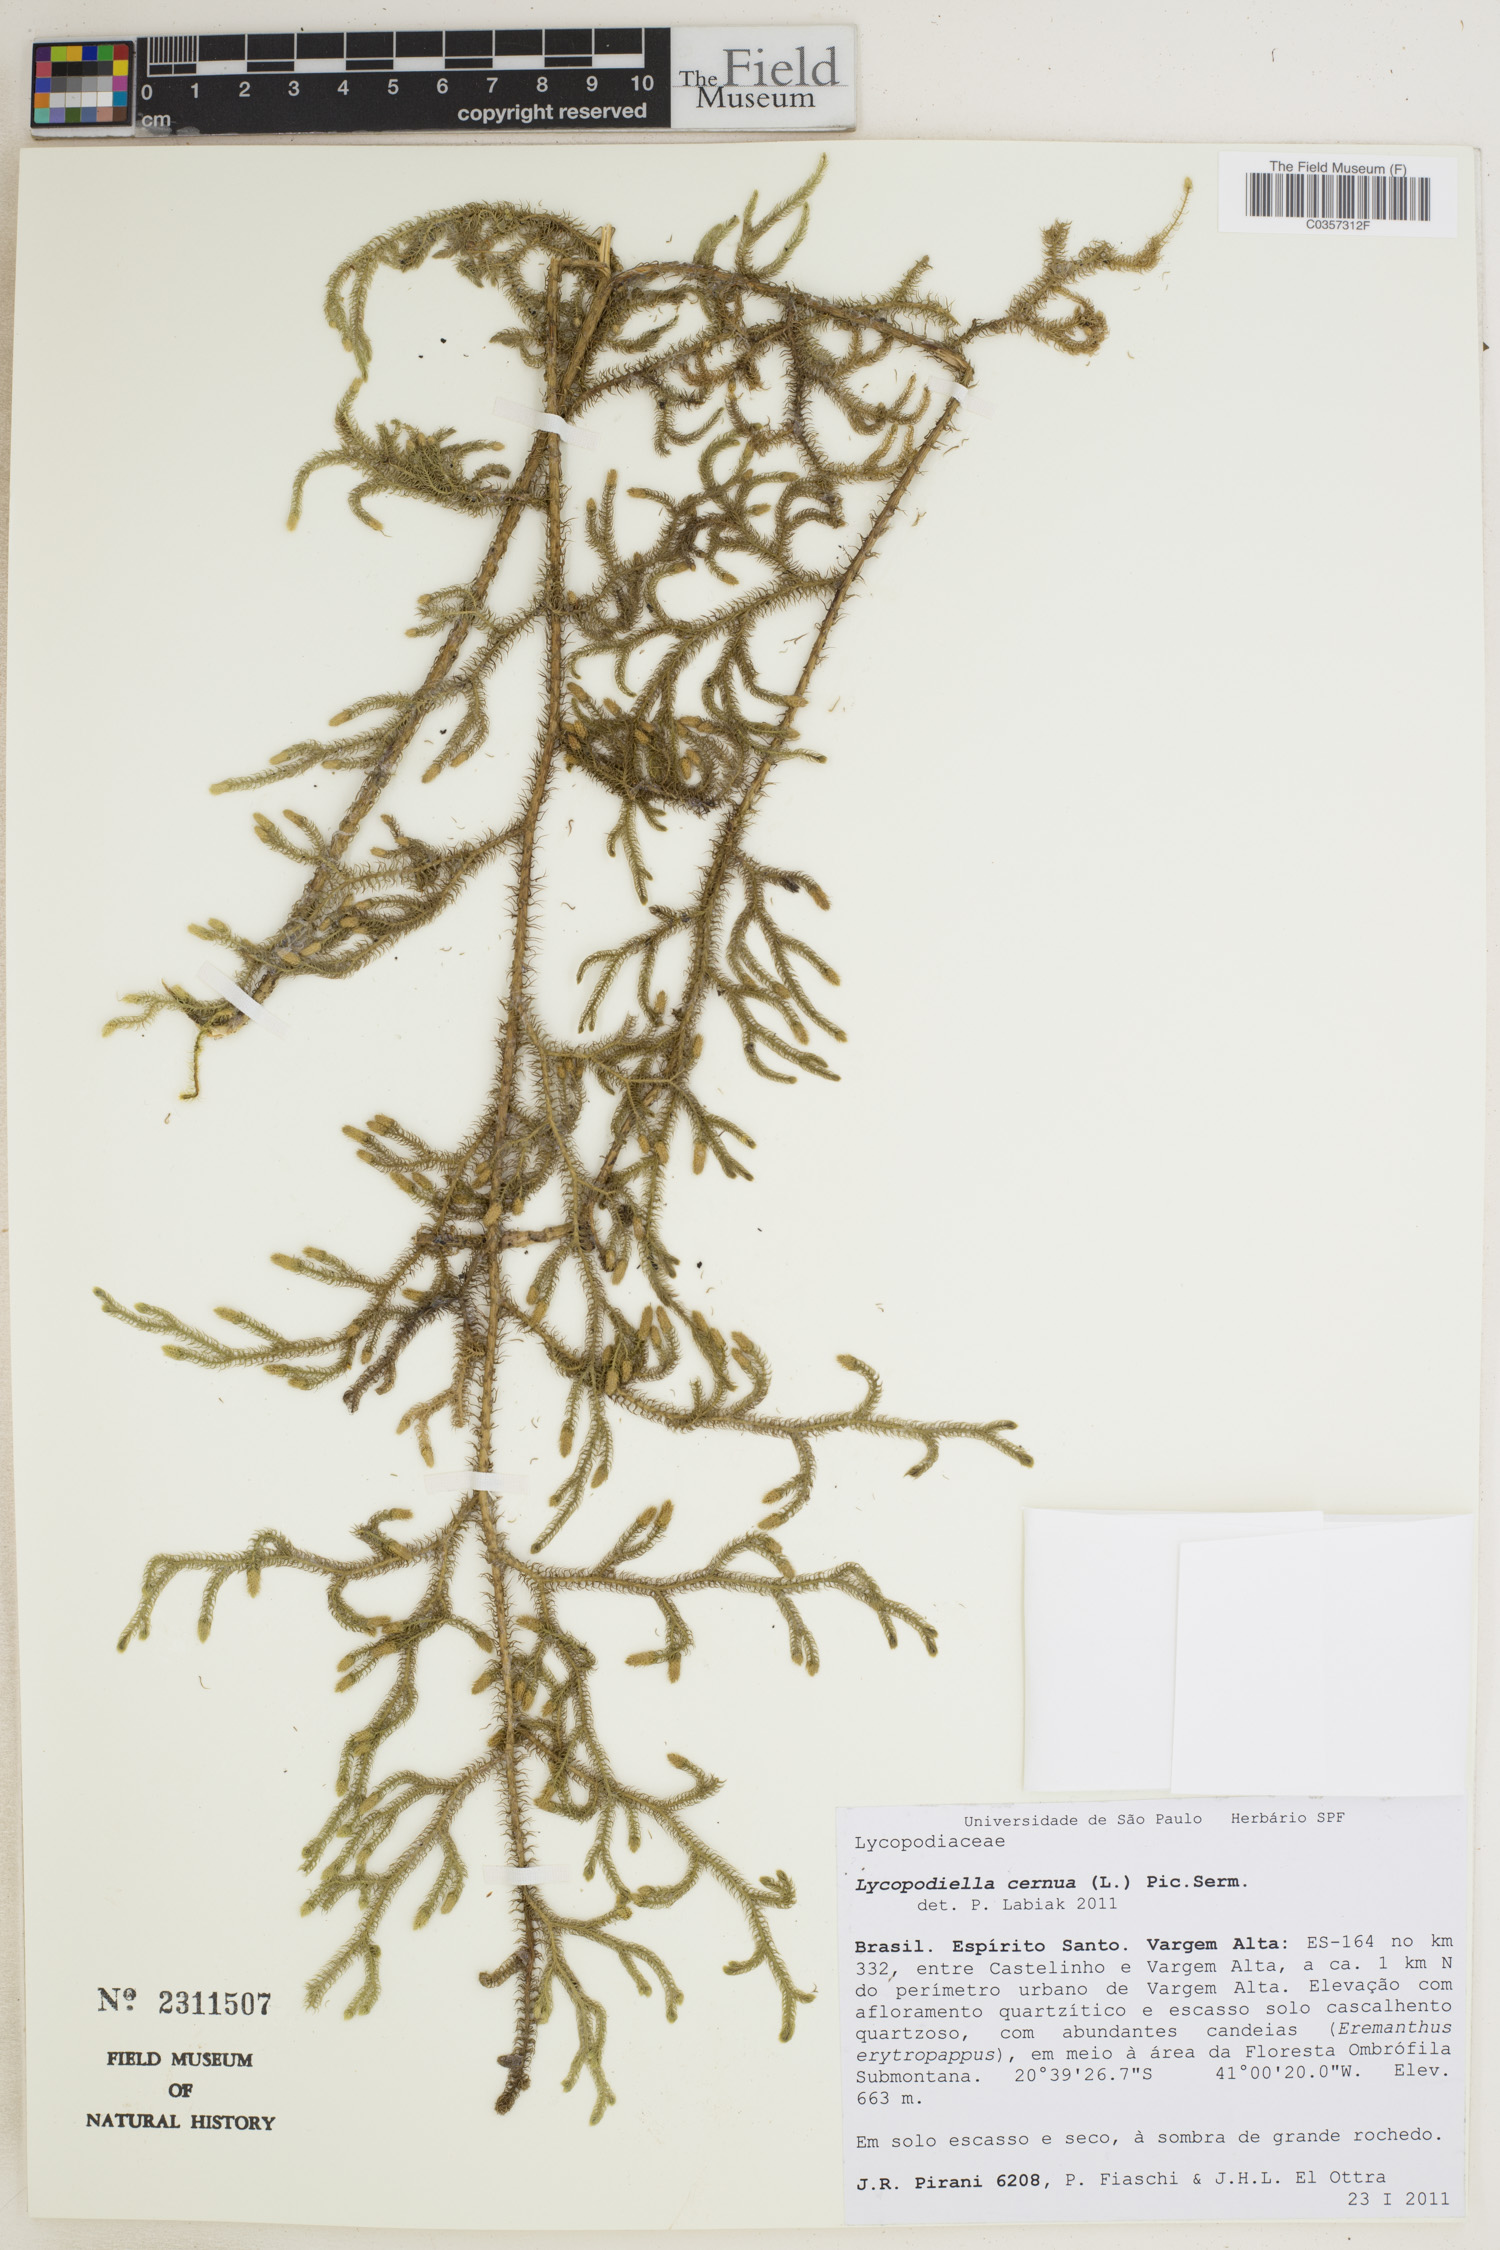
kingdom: Plantae
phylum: Tracheophyta
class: Lycopodiopsida
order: Lycopodiales
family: Lycopodiaceae
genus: Palhinhaea
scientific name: Palhinhaea cernua
